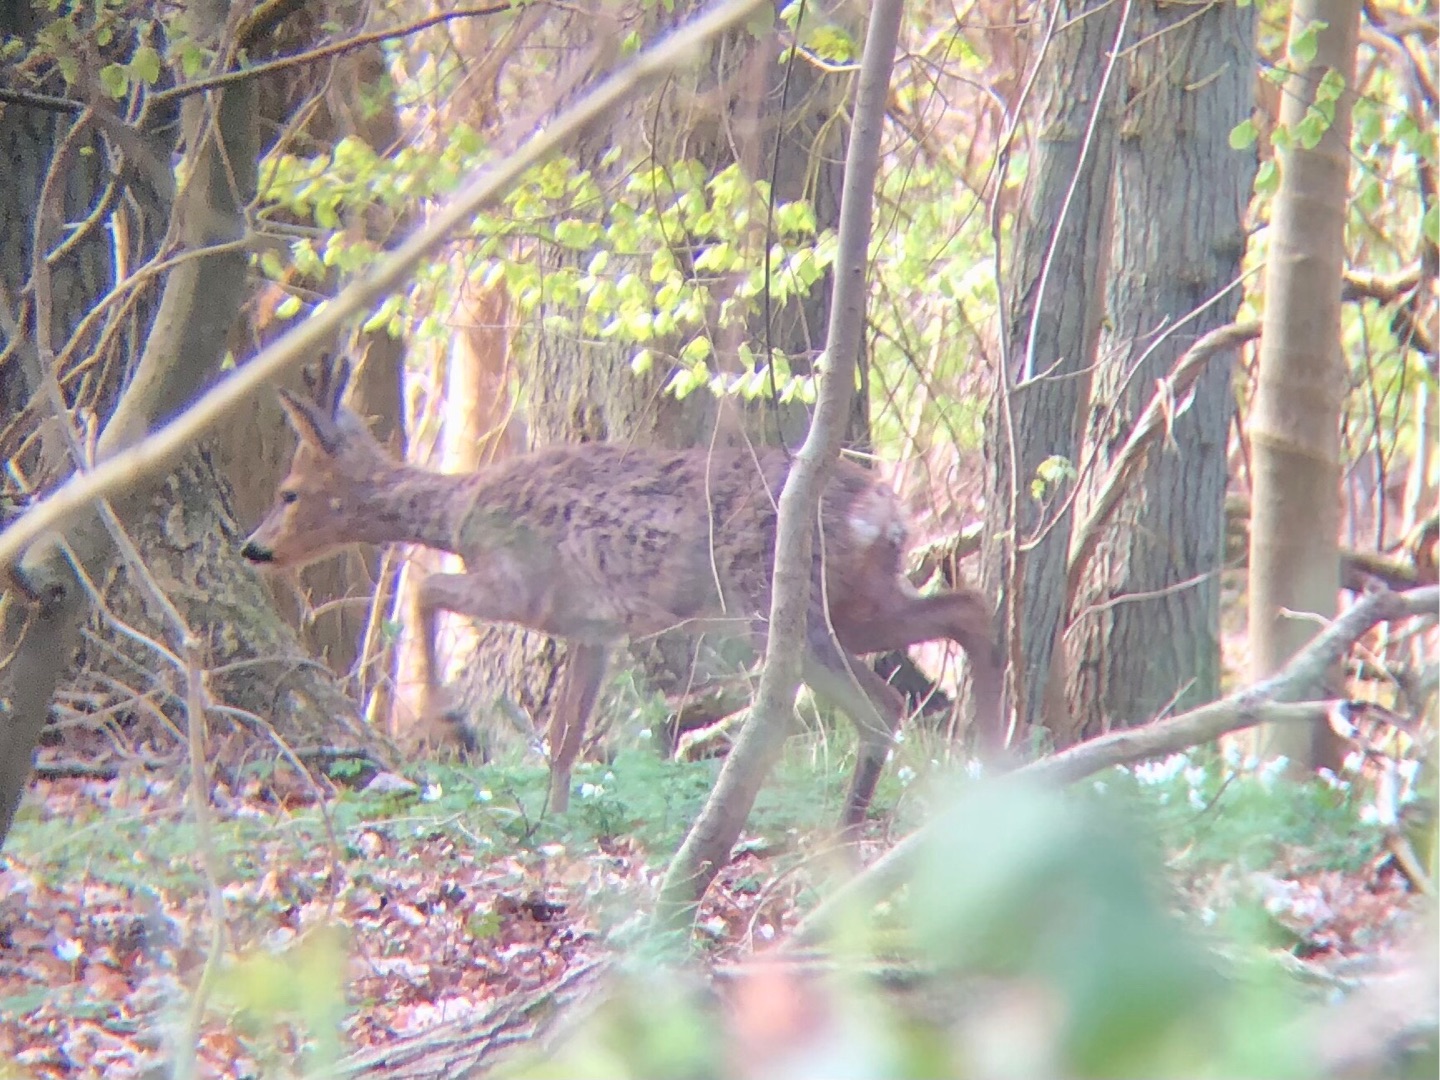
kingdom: Animalia
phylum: Chordata
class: Mammalia
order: Artiodactyla
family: Cervidae
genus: Capreolus
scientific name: Capreolus capreolus
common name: Rådyr
